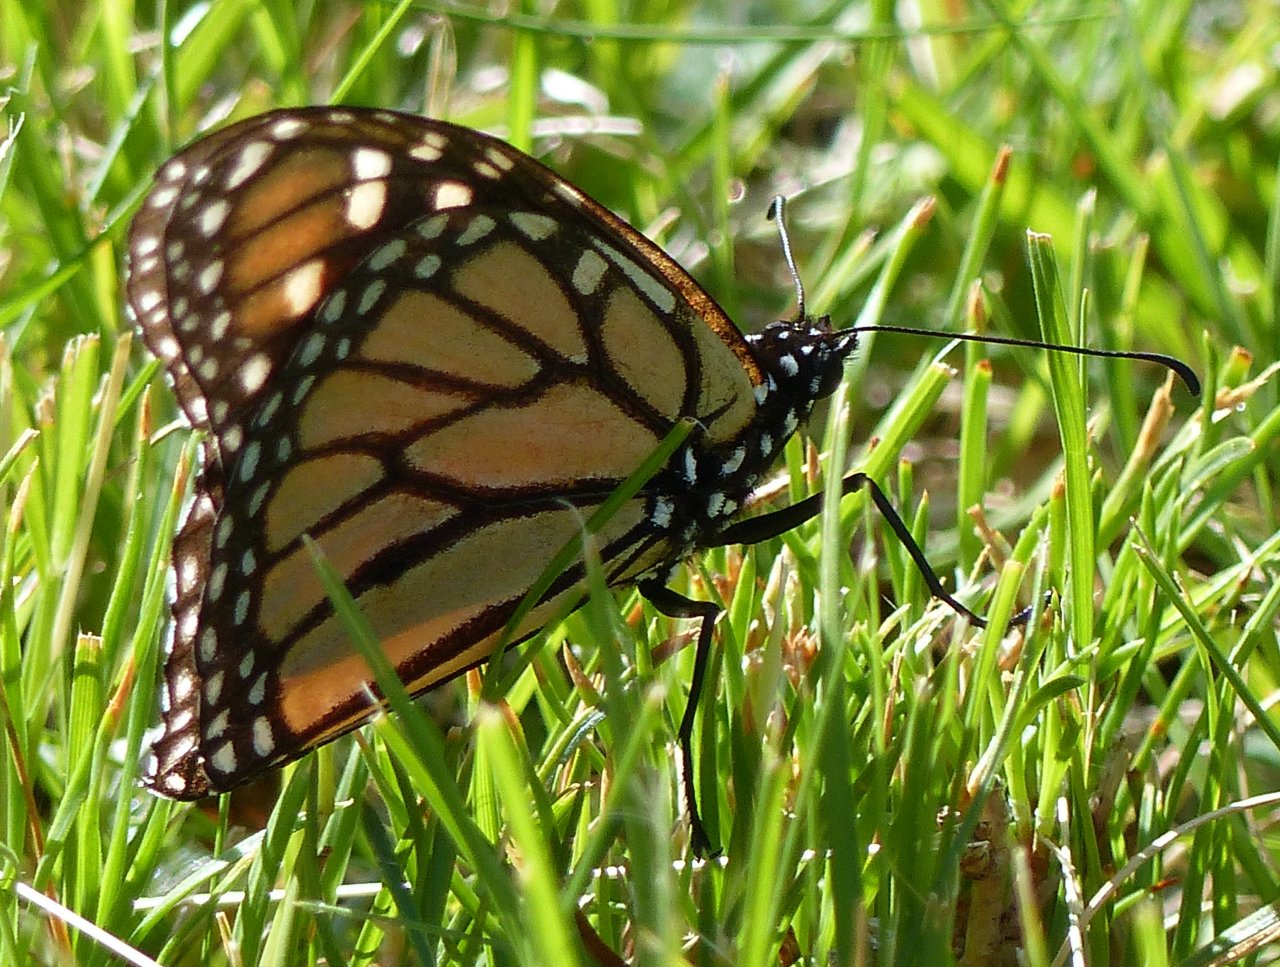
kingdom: Animalia
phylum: Arthropoda
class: Insecta
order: Lepidoptera
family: Nymphalidae
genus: Danaus
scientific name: Danaus plexippus
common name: Monarch
